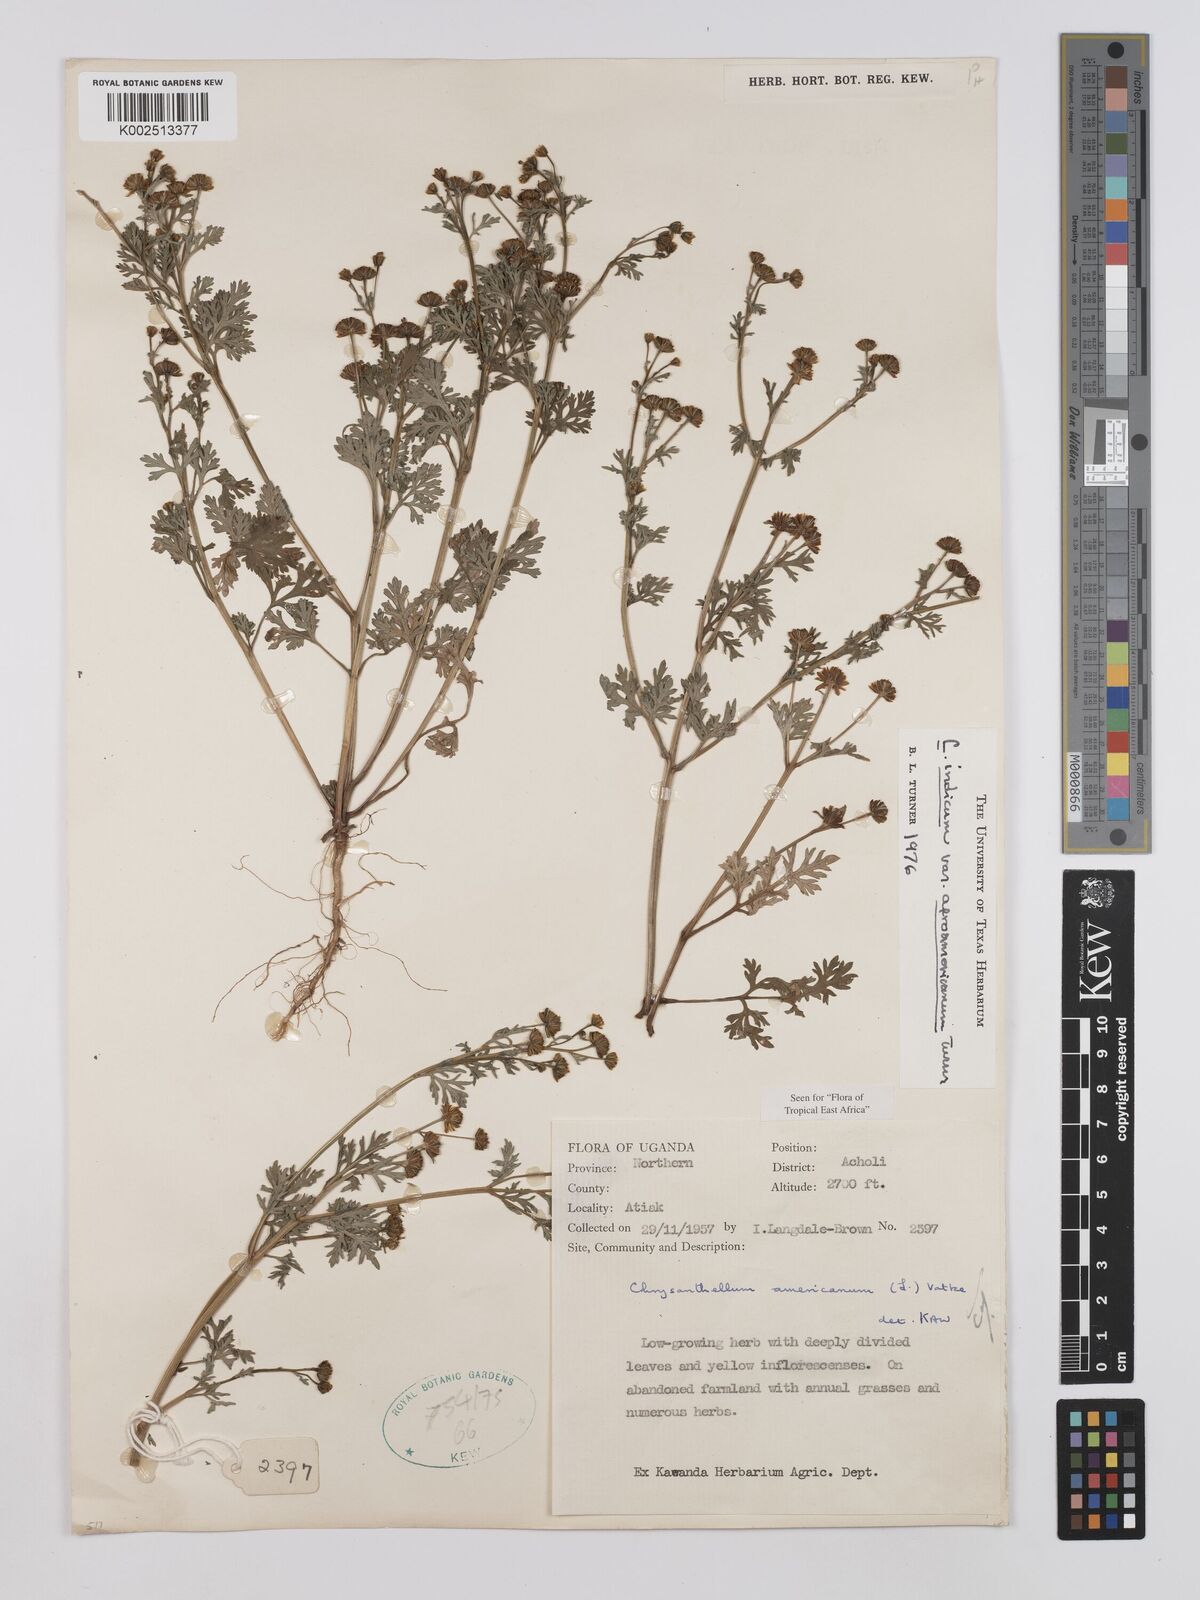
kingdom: Plantae
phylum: Tracheophyta
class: Magnoliopsida
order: Asterales
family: Asteraceae
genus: Chrysanthellum
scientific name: Chrysanthellum indicum
